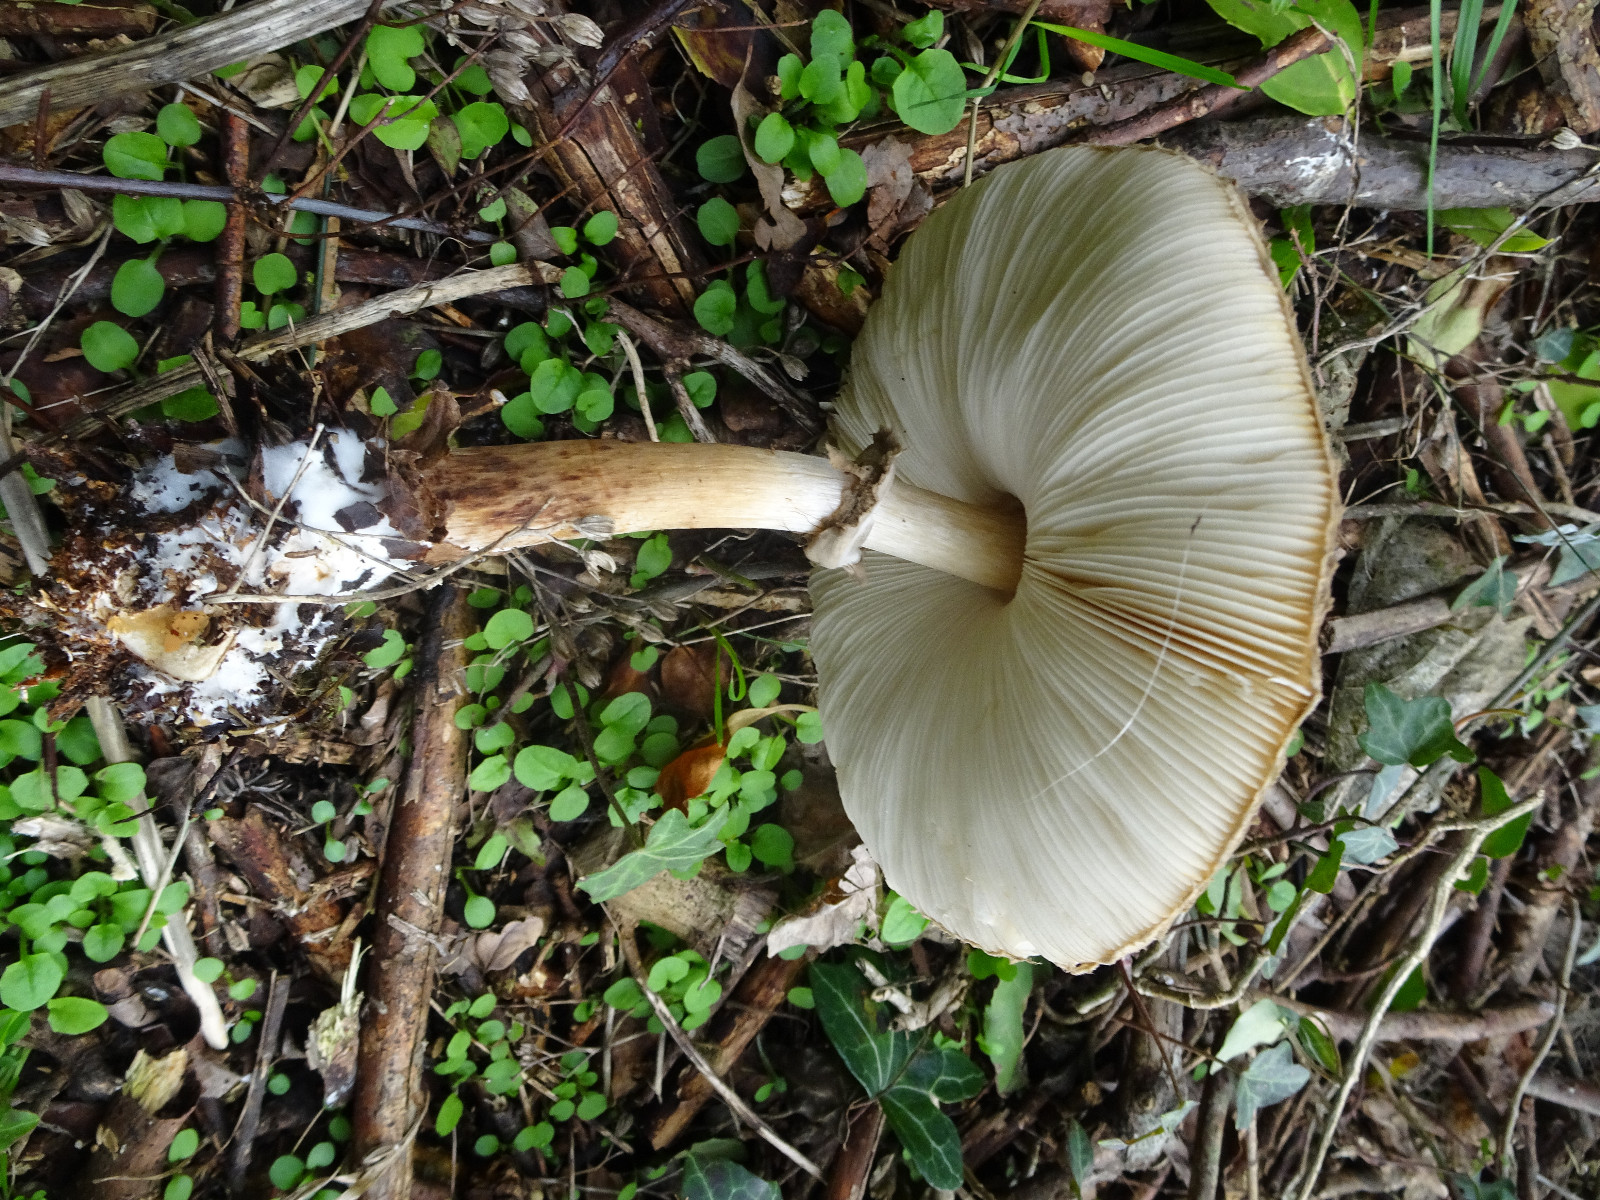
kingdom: Fungi
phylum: Basidiomycota
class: Agaricomycetes
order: Agaricales
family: Agaricaceae
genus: Chlorophyllum
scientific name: Chlorophyllum olivieri
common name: almindelig rabarberhat
